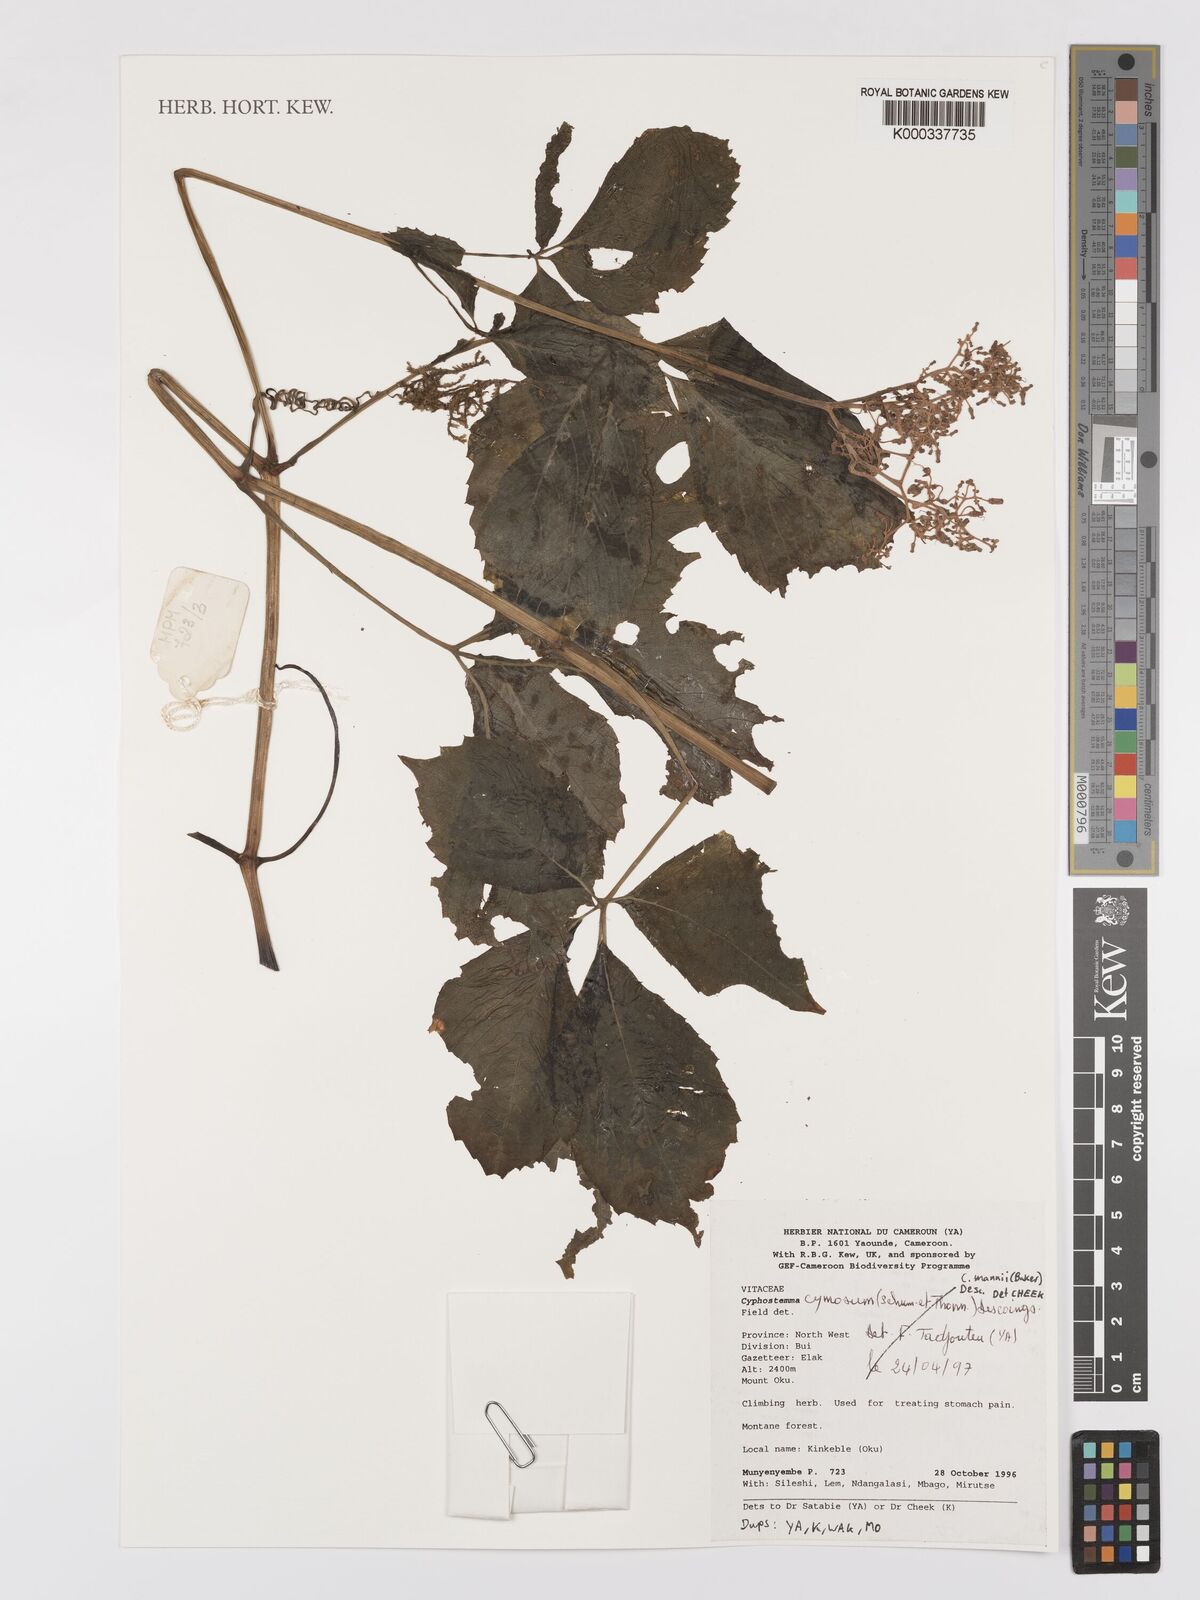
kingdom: Plantae
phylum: Tracheophyta
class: Magnoliopsida
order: Vitales
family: Vitaceae
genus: Cyphostemma
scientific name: Cyphostemma mannii
